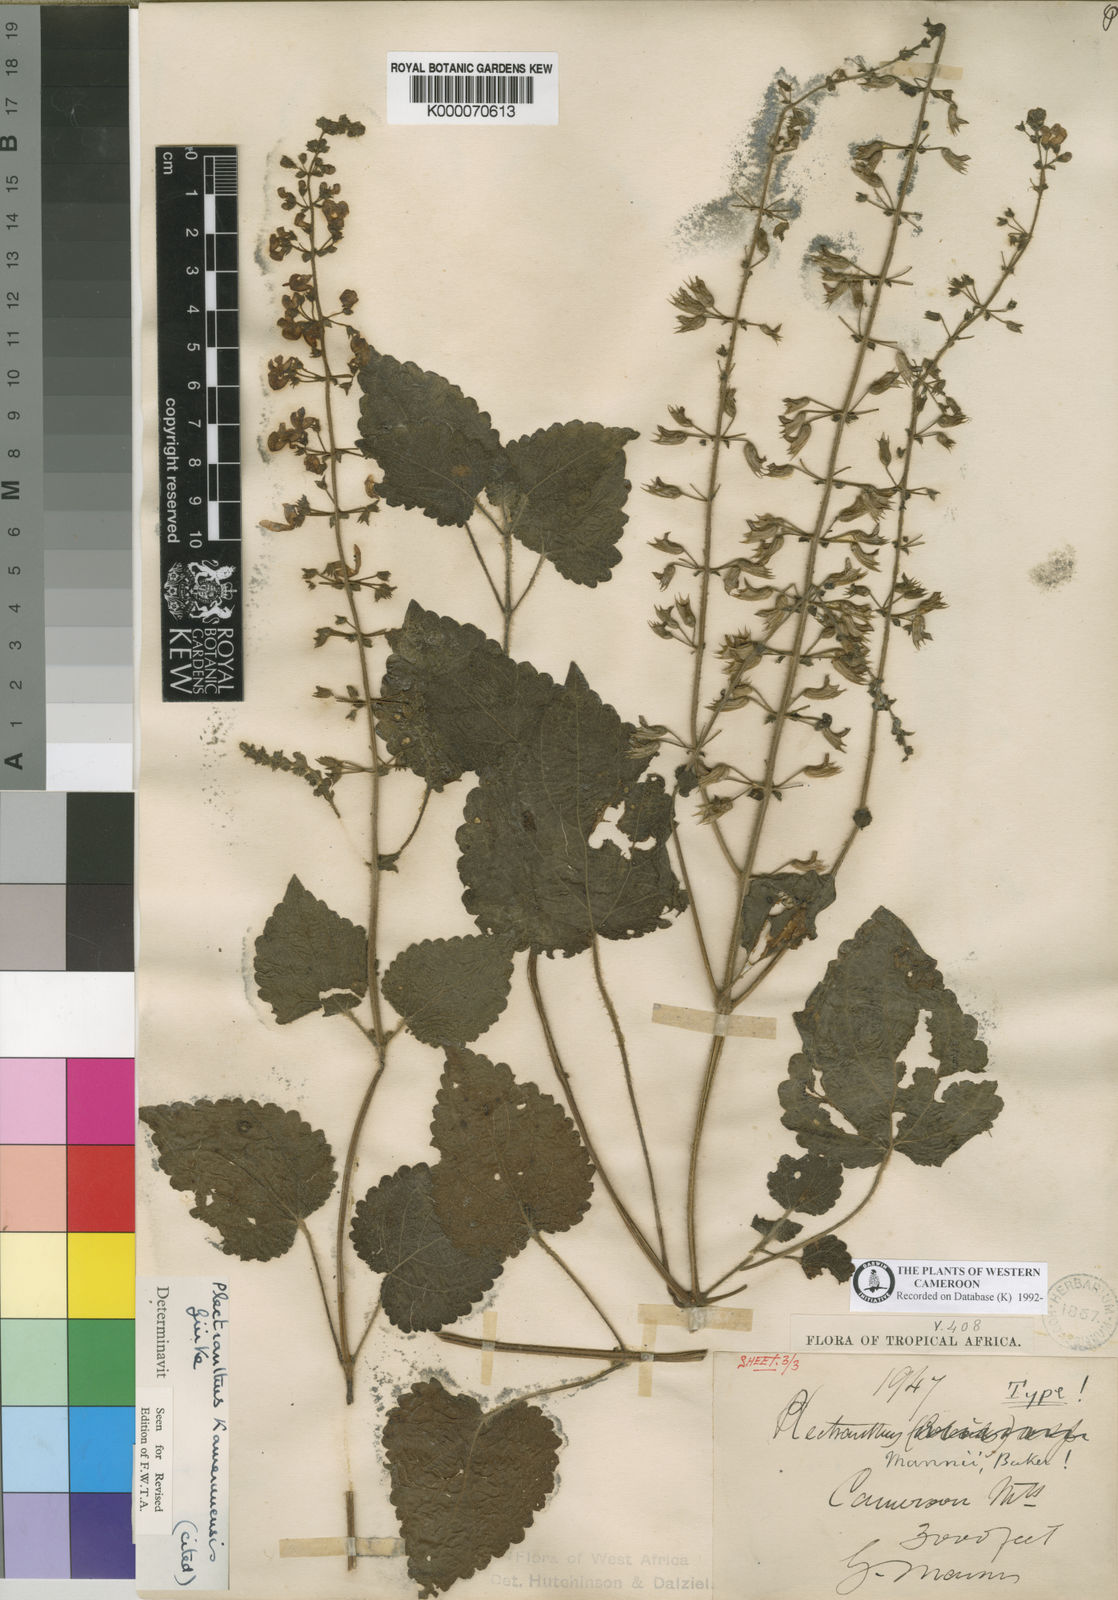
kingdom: Plantae
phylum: Tracheophyta
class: Magnoliopsida
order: Lamiales
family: Lamiaceae
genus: Equilabium
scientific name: Equilabium kamerunense
